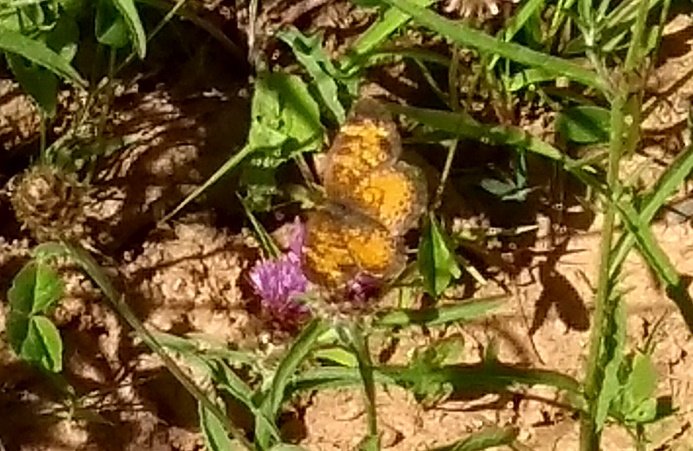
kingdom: Animalia
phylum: Arthropoda
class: Insecta
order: Lepidoptera
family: Nymphalidae
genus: Phyciodes
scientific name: Phyciodes tharos
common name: Northern Crescent
